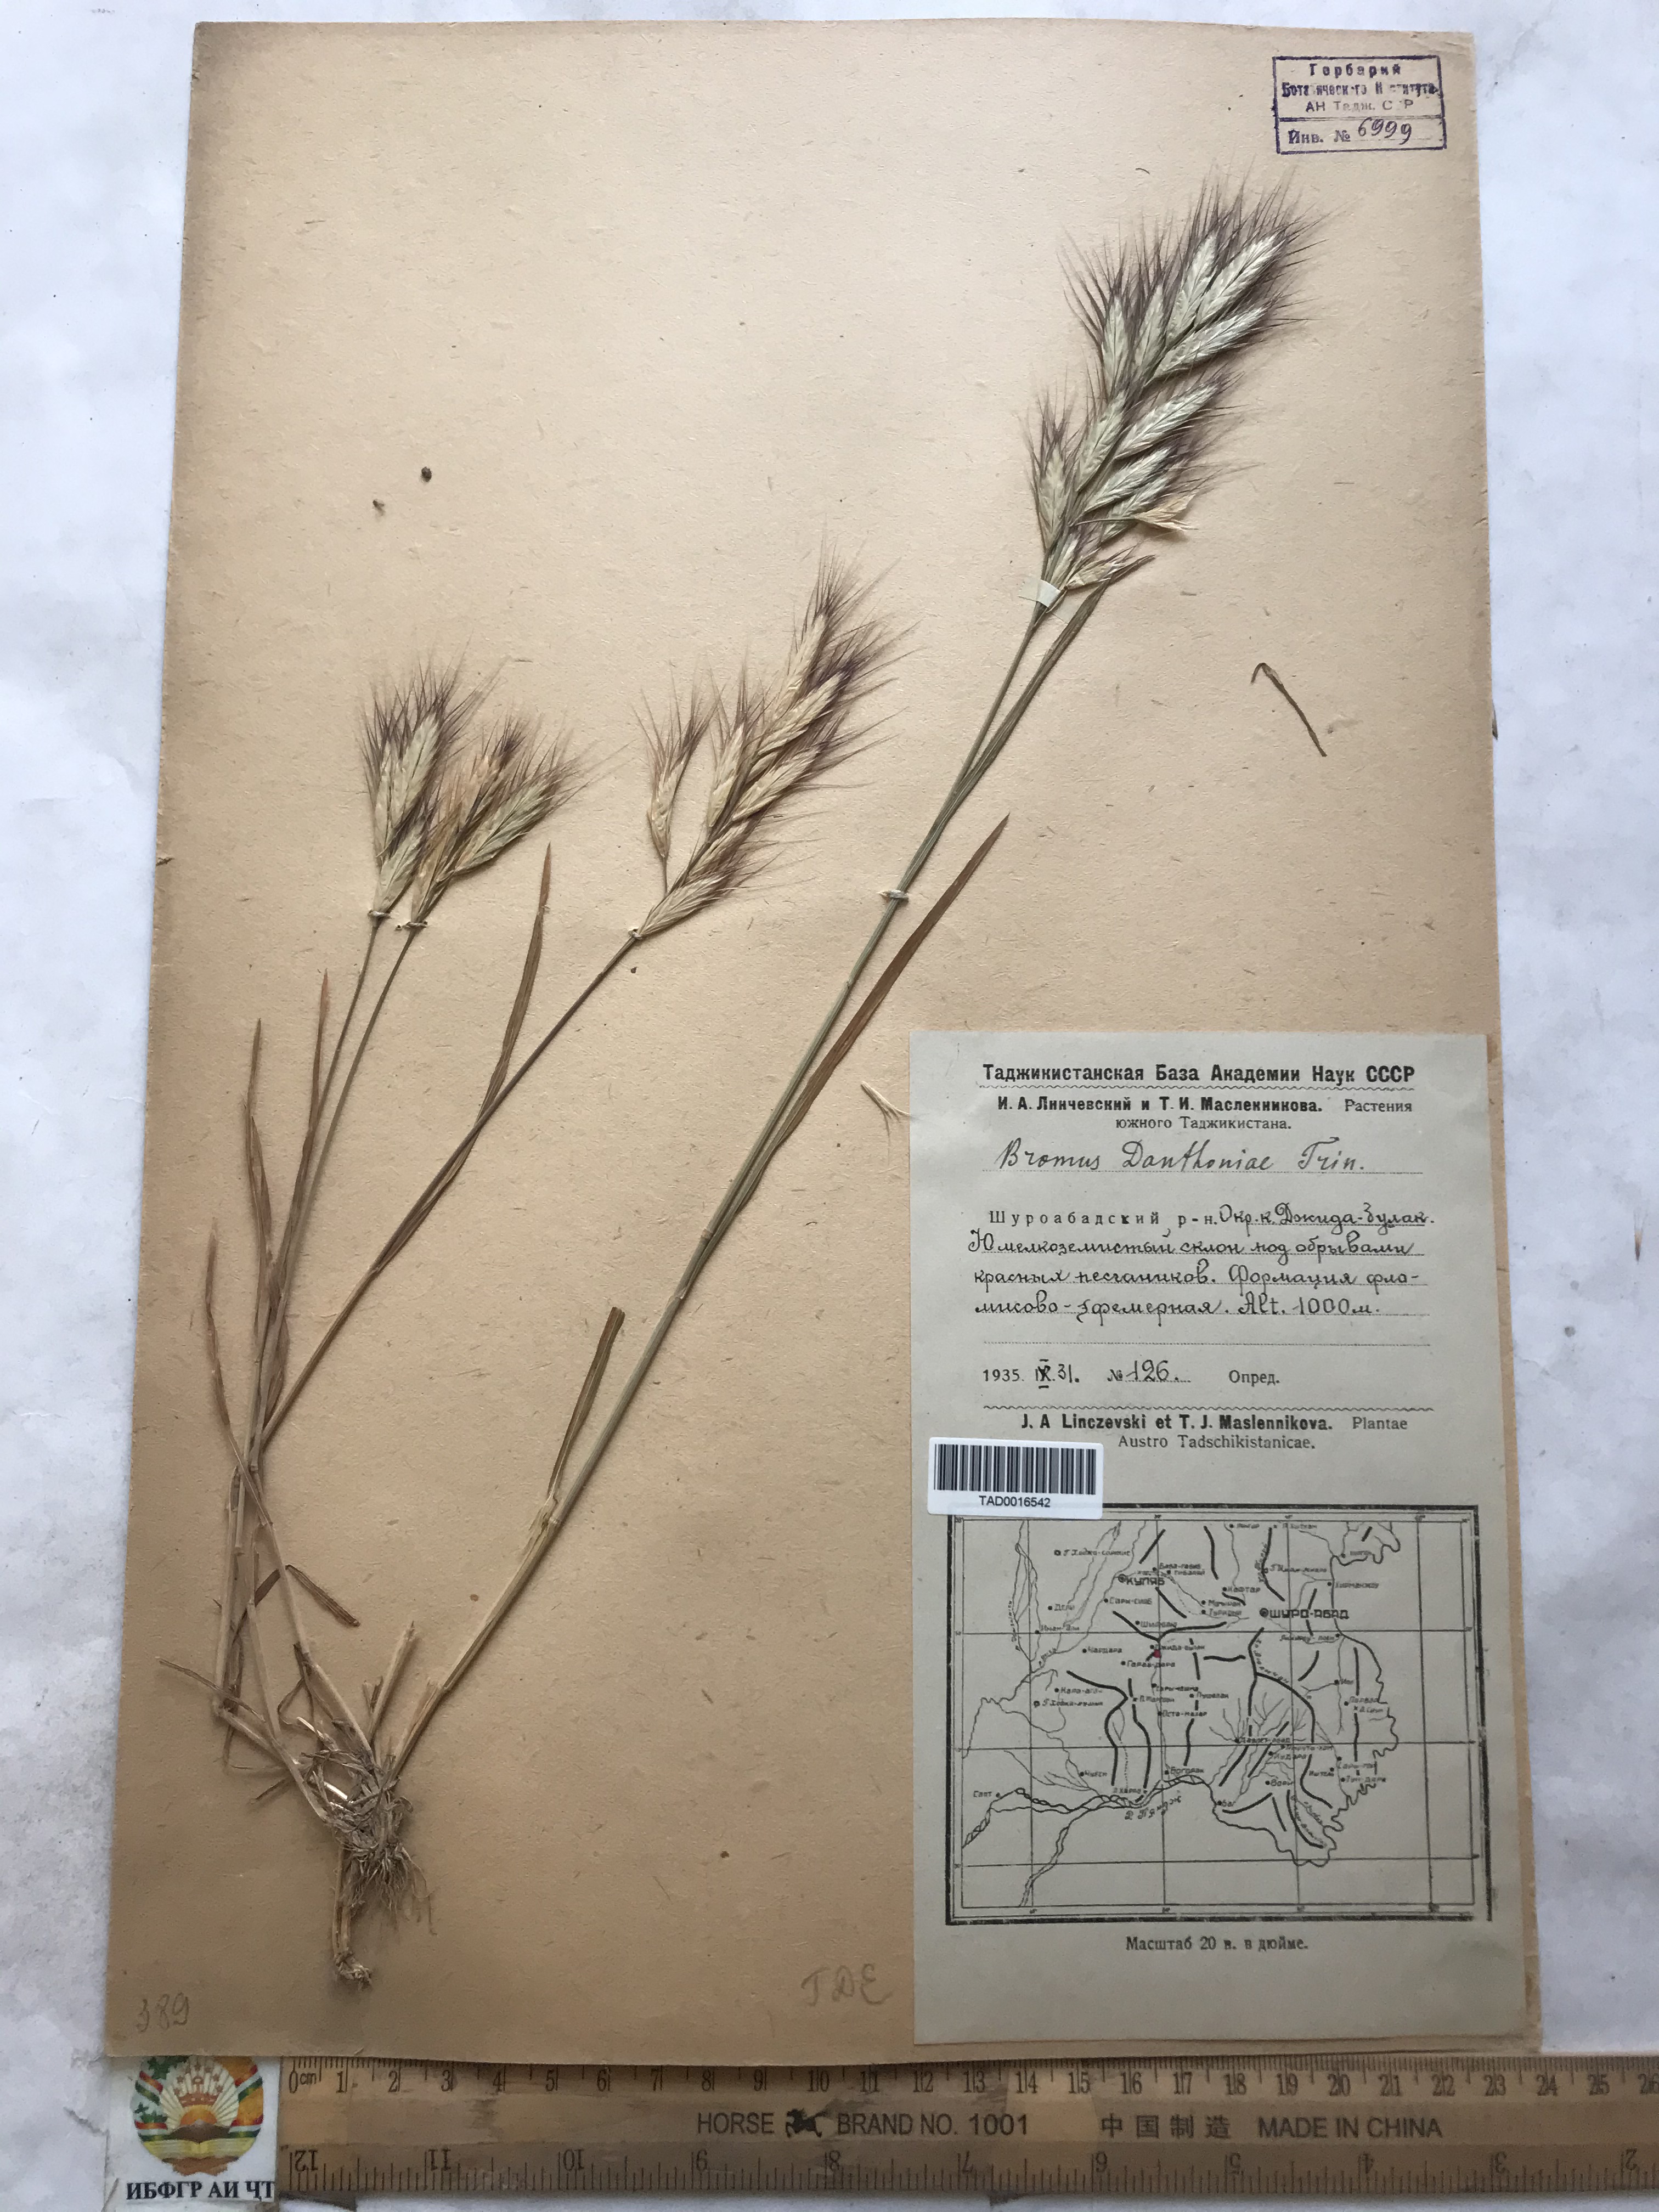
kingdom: Plantae
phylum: Tracheophyta
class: Liliopsida
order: Poales
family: Poaceae
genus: Bromus
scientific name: Bromus danthoniae
